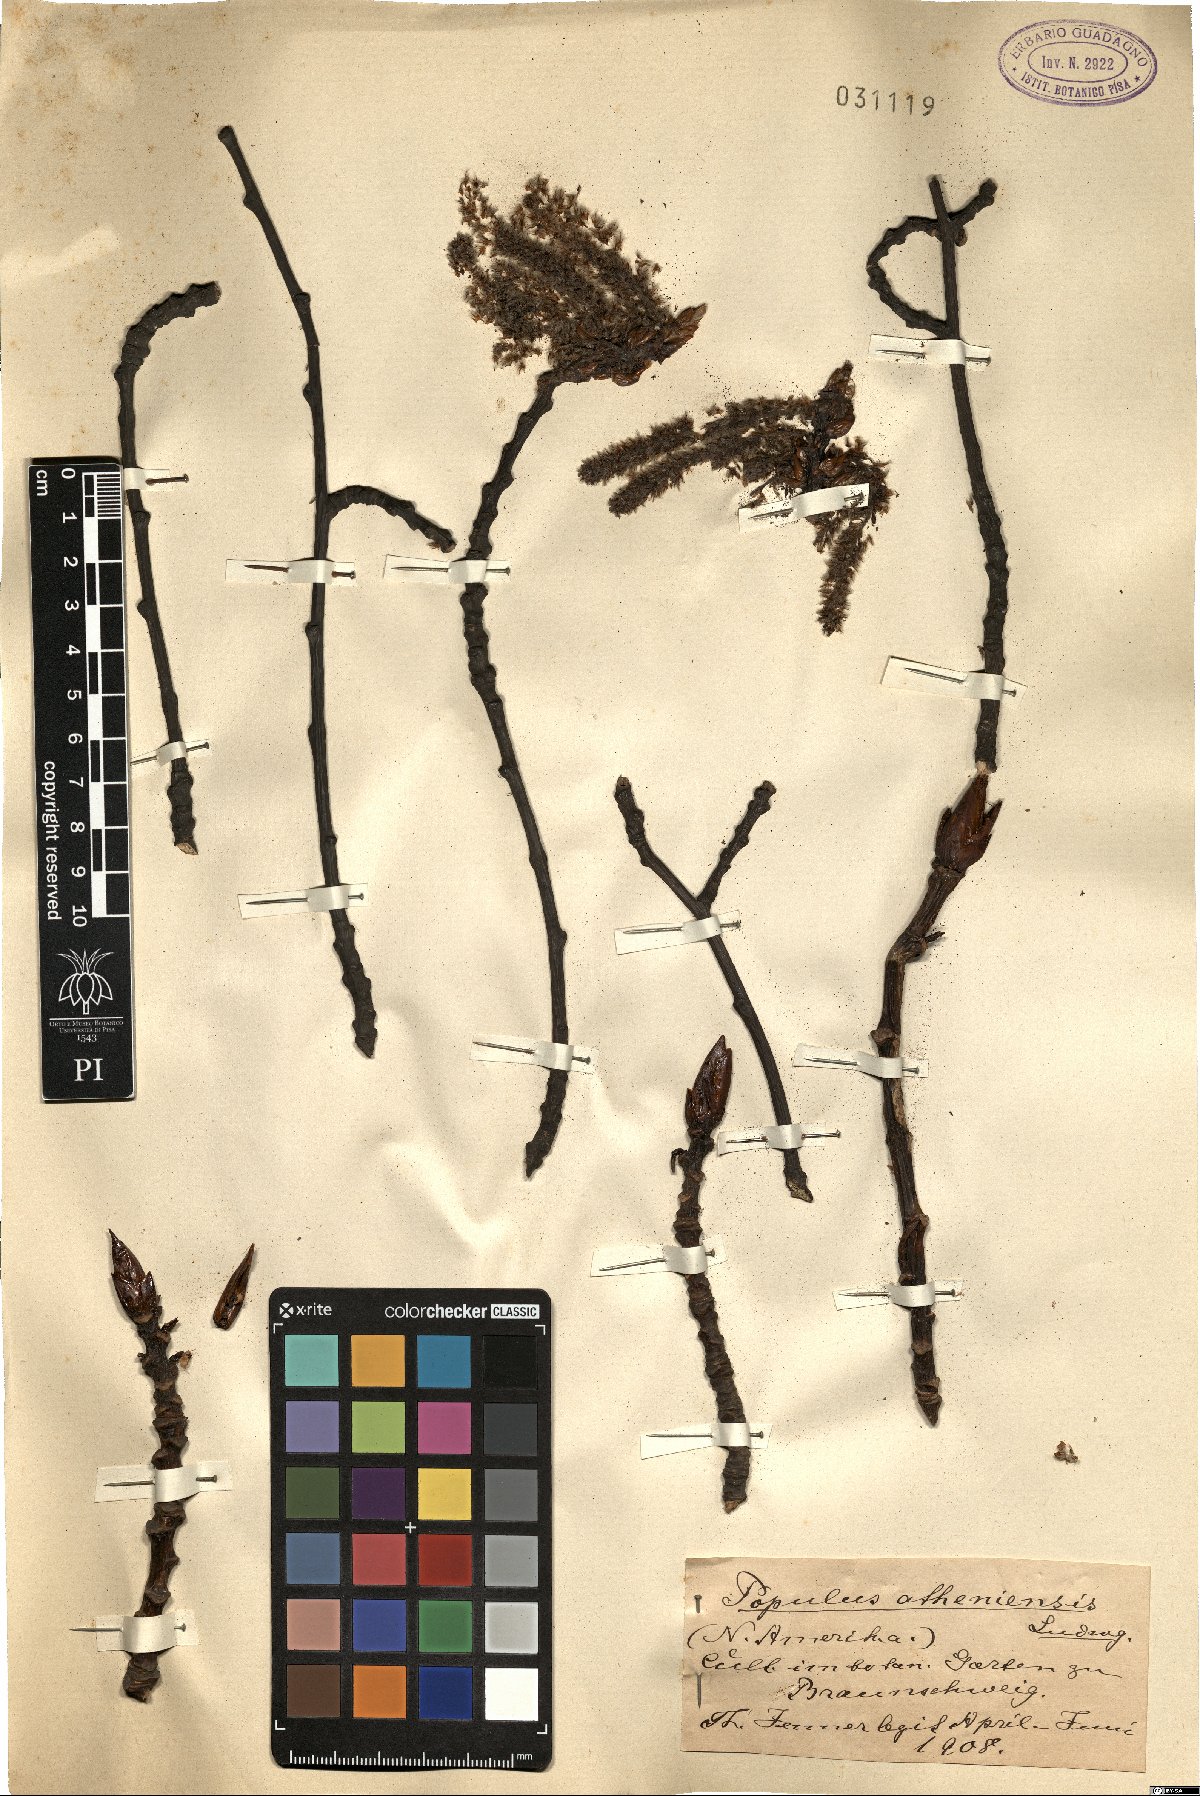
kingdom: Plantae
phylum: Tracheophyta
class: Magnoliopsida
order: Malpighiales
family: Salicaceae
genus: Populus
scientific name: Populus tremuloides
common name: Quaking aspen
